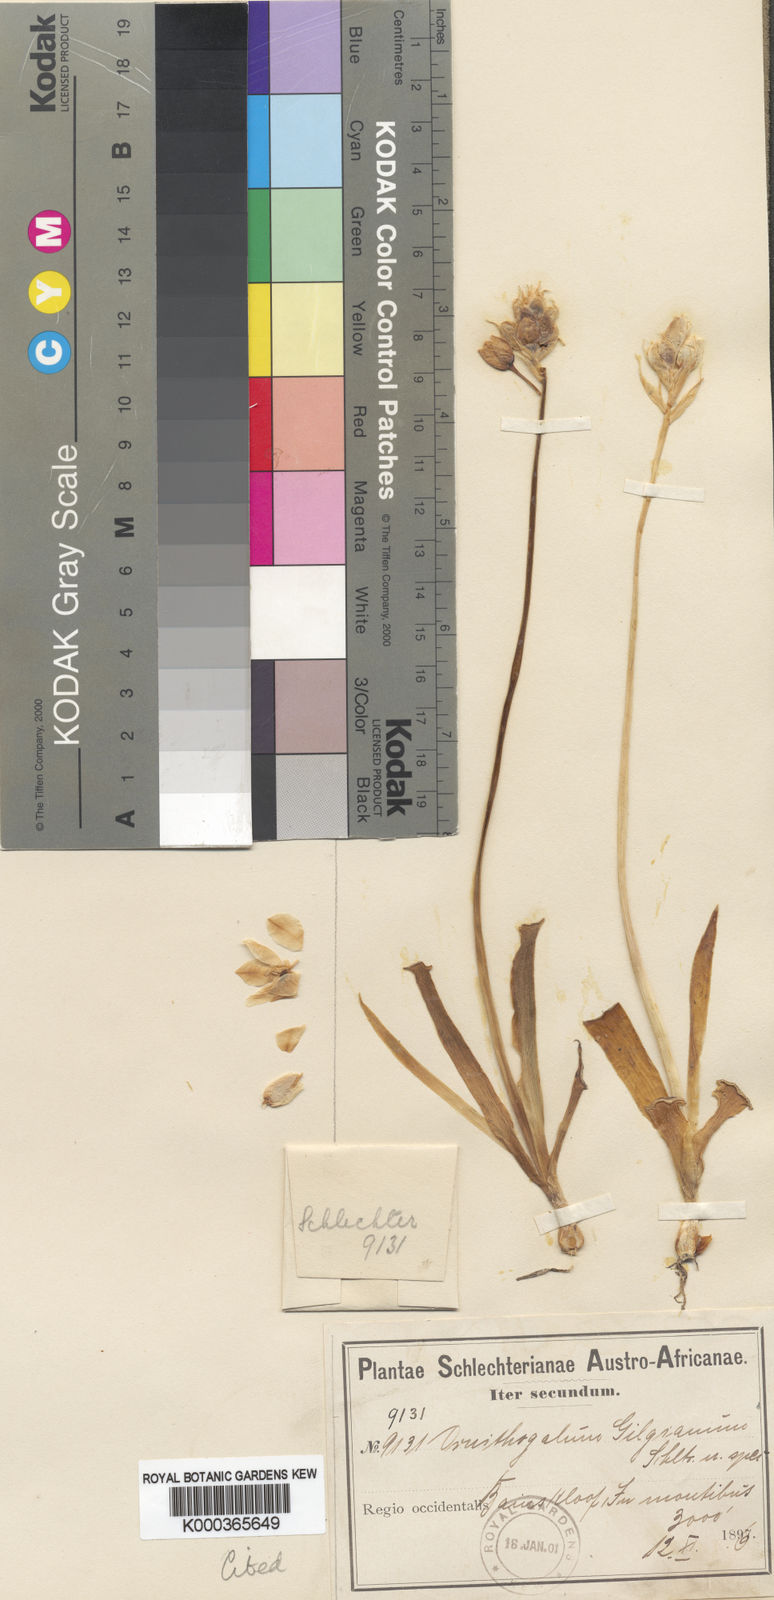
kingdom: Plantae
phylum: Tracheophyta
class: Liliopsida
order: Asparagales
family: Asparagaceae
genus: Ornithogalum
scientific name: Ornithogalum thyrsoides
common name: Chincherinchee
